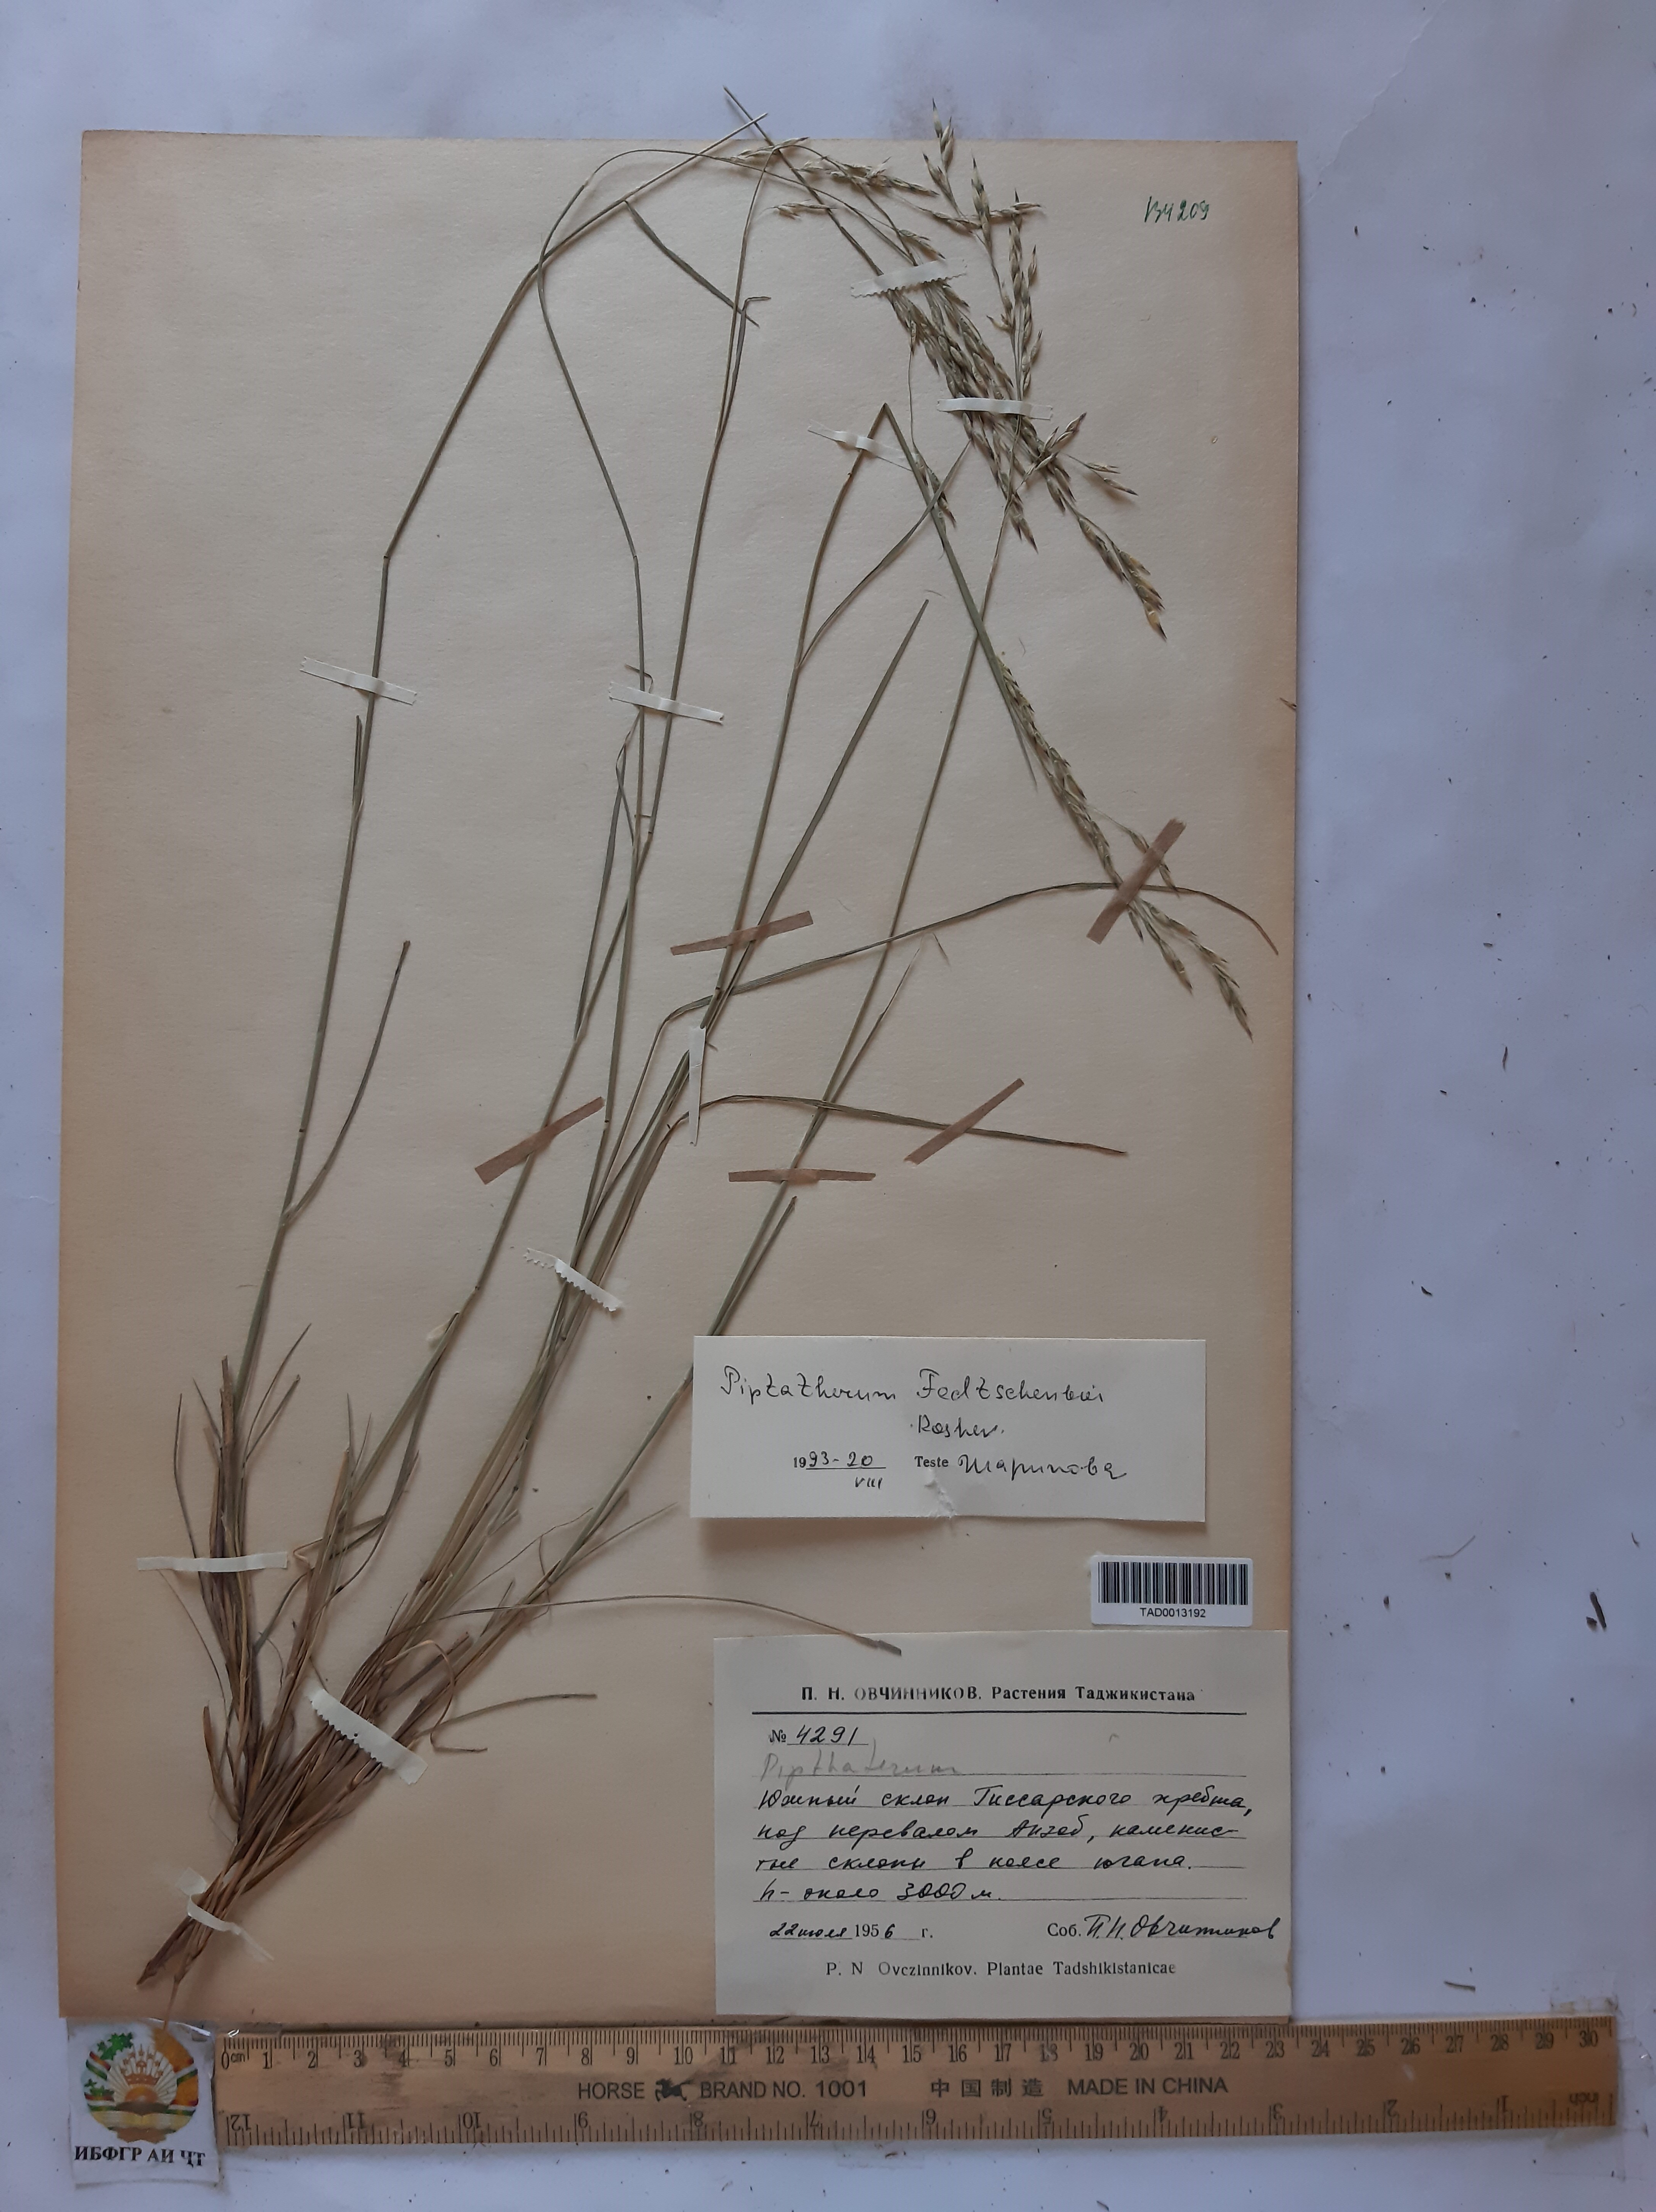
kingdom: Plantae
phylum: Tracheophyta
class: Liliopsida
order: Poales
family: Poaceae
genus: Piptatherum
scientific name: Piptatherum sogdianum
